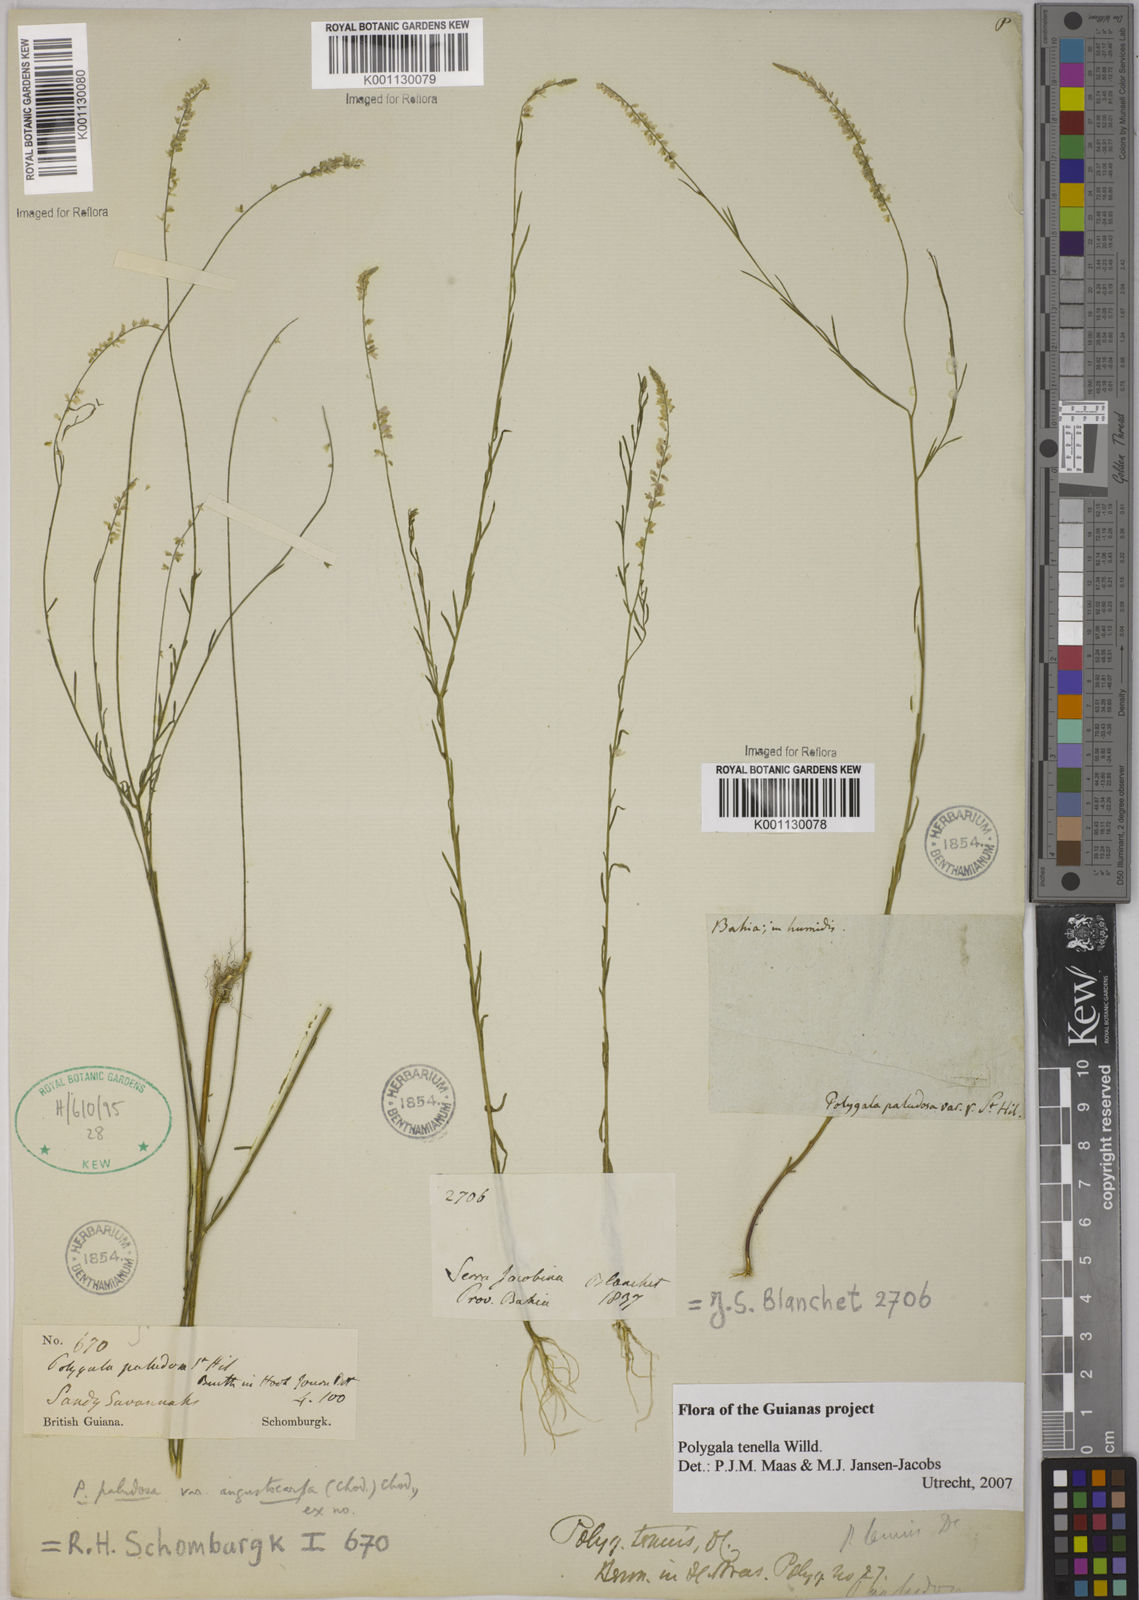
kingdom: Plantae
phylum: Tracheophyta
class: Magnoliopsida
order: Fabales
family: Polygalaceae
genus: Polygala
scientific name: Polygala tenella
